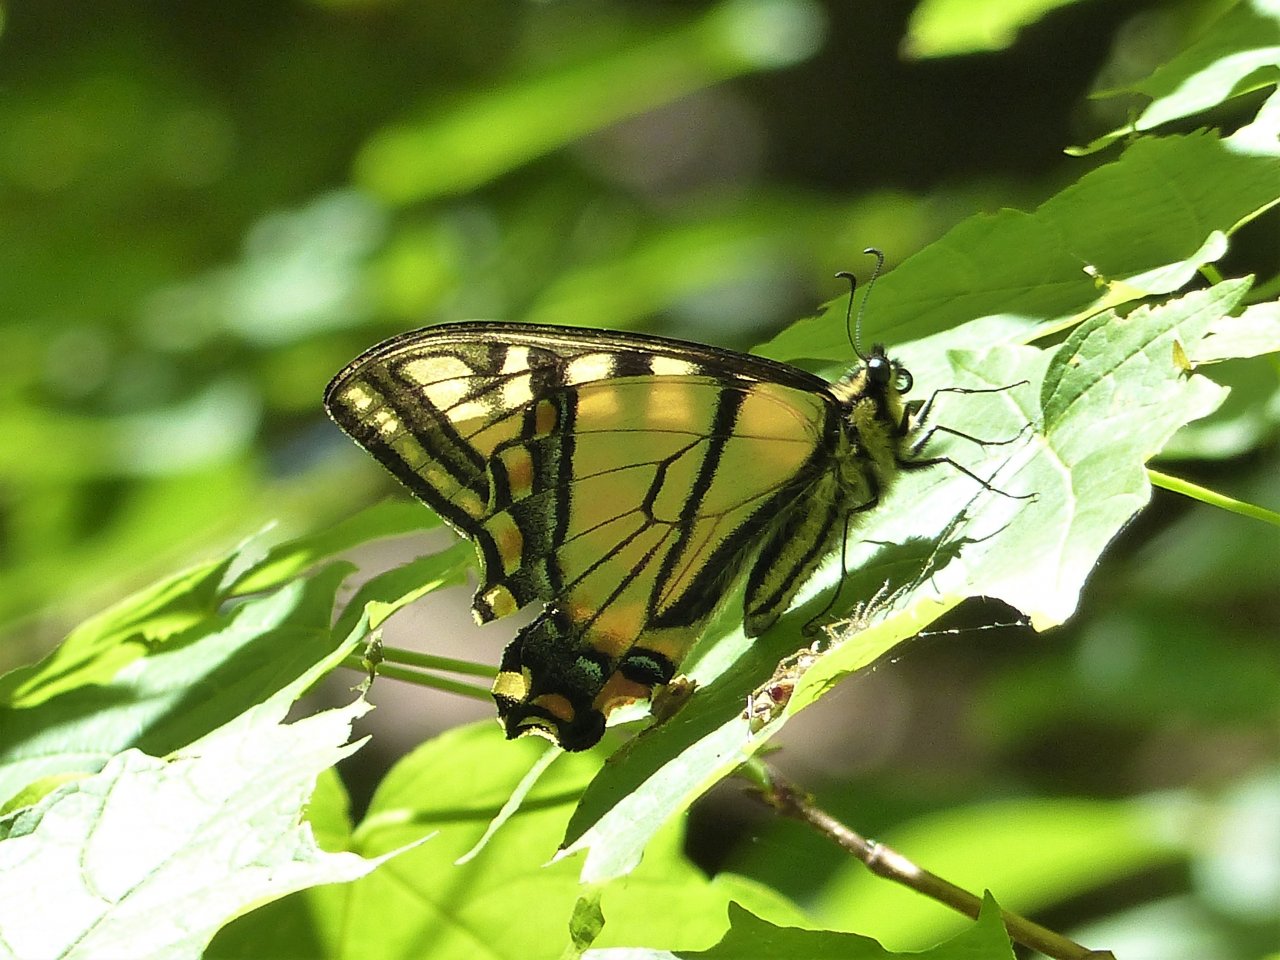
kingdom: Animalia
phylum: Arthropoda
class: Insecta
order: Lepidoptera
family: Papilionidae
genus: Pterourus
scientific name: Pterourus canadensis
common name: Canadian Tiger Swallowtail
